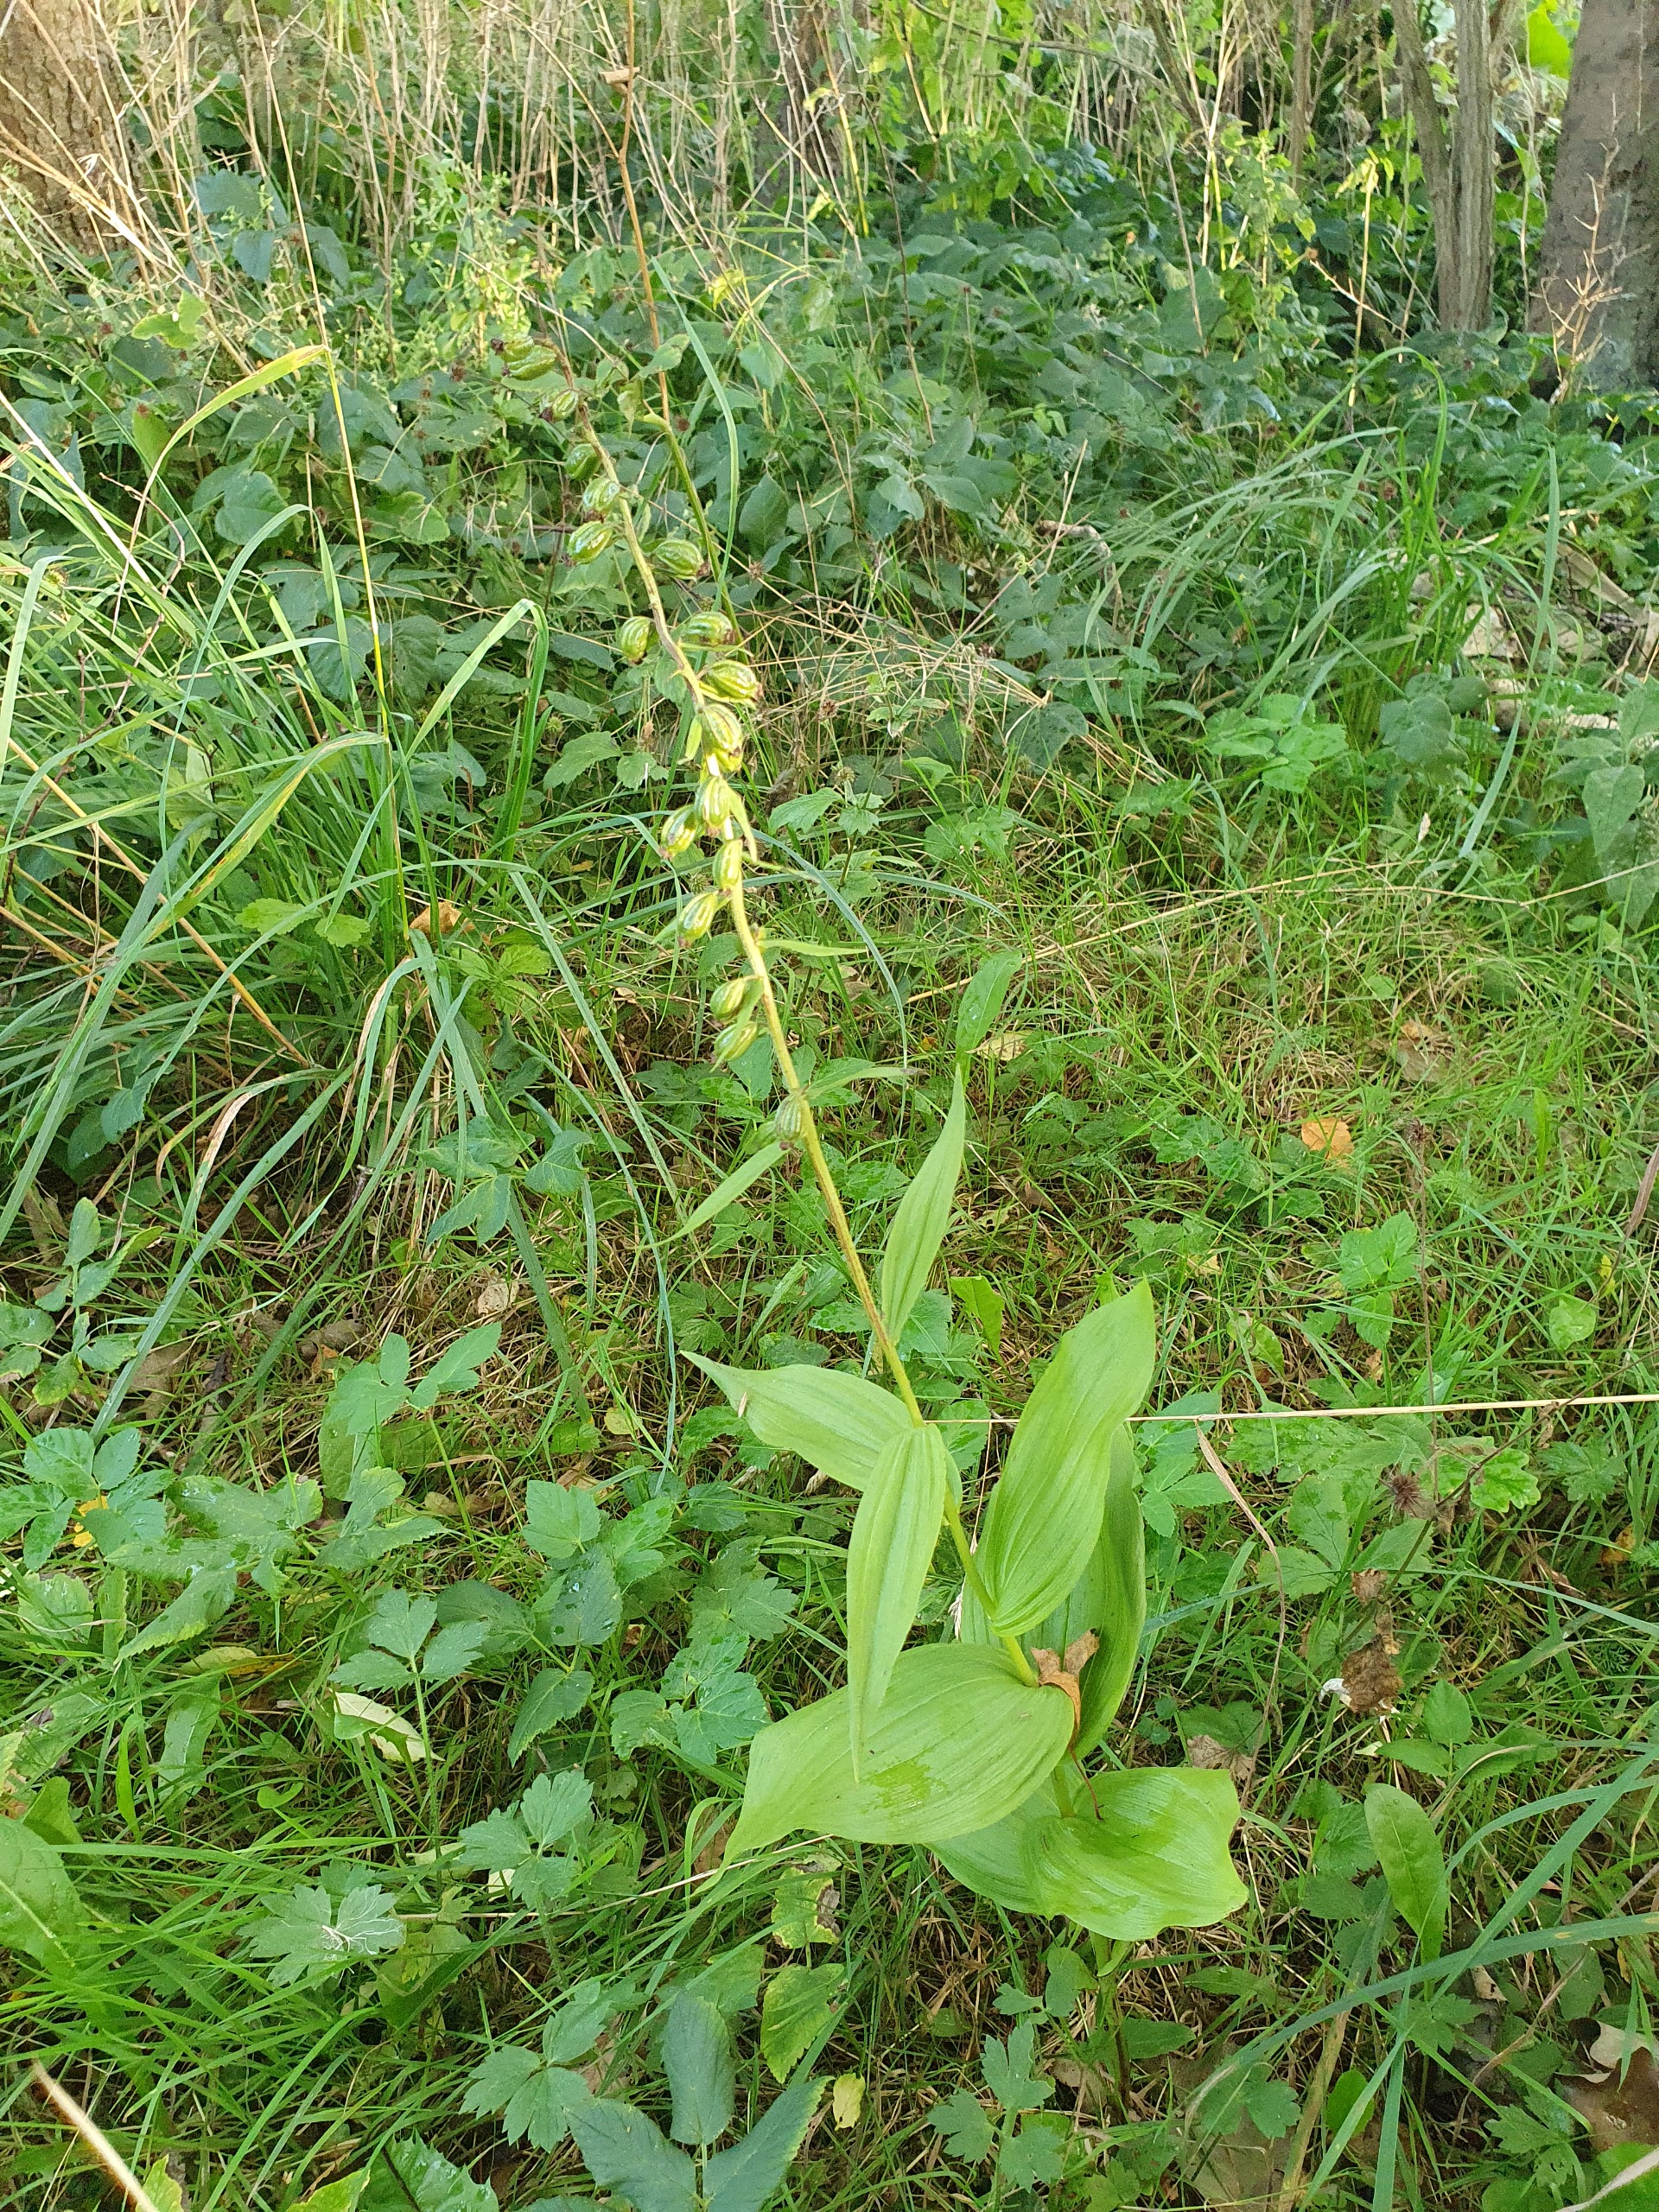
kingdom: Plantae
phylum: Tracheophyta
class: Liliopsida
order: Asparagales
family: Orchidaceae
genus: Epipactis
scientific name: Epipactis helleborine
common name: Skov-hullæbe
